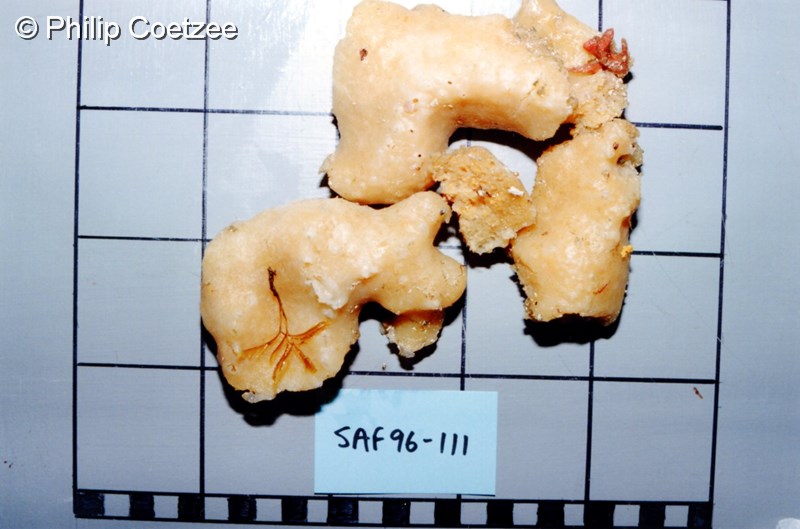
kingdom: Animalia
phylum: Porifera
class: Demospongiae
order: Poecilosclerida
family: Mycalidae
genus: Mycale
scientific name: Mycale
